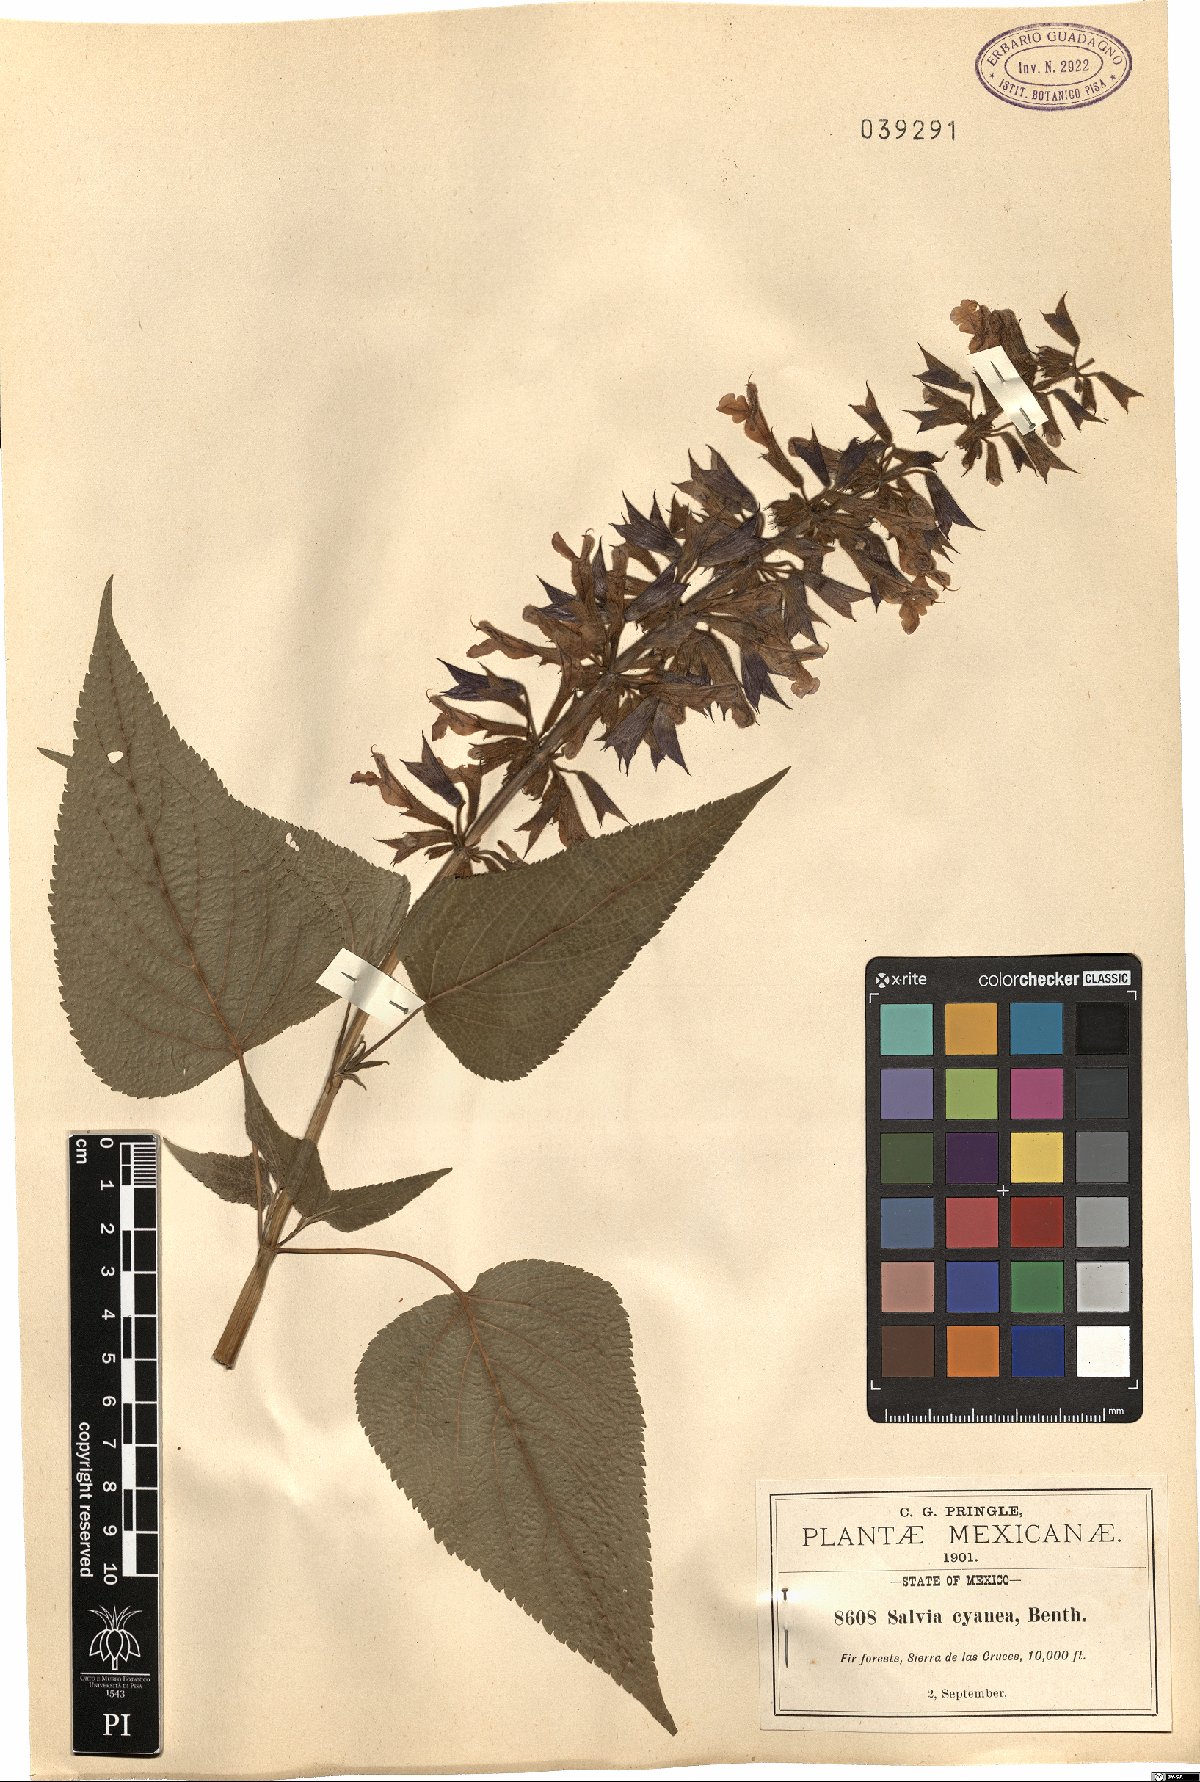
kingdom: Plantae
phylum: Tracheophyta
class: Magnoliopsida
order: Lamiales
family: Lamiaceae
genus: Salvia
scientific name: Salvia concolor
